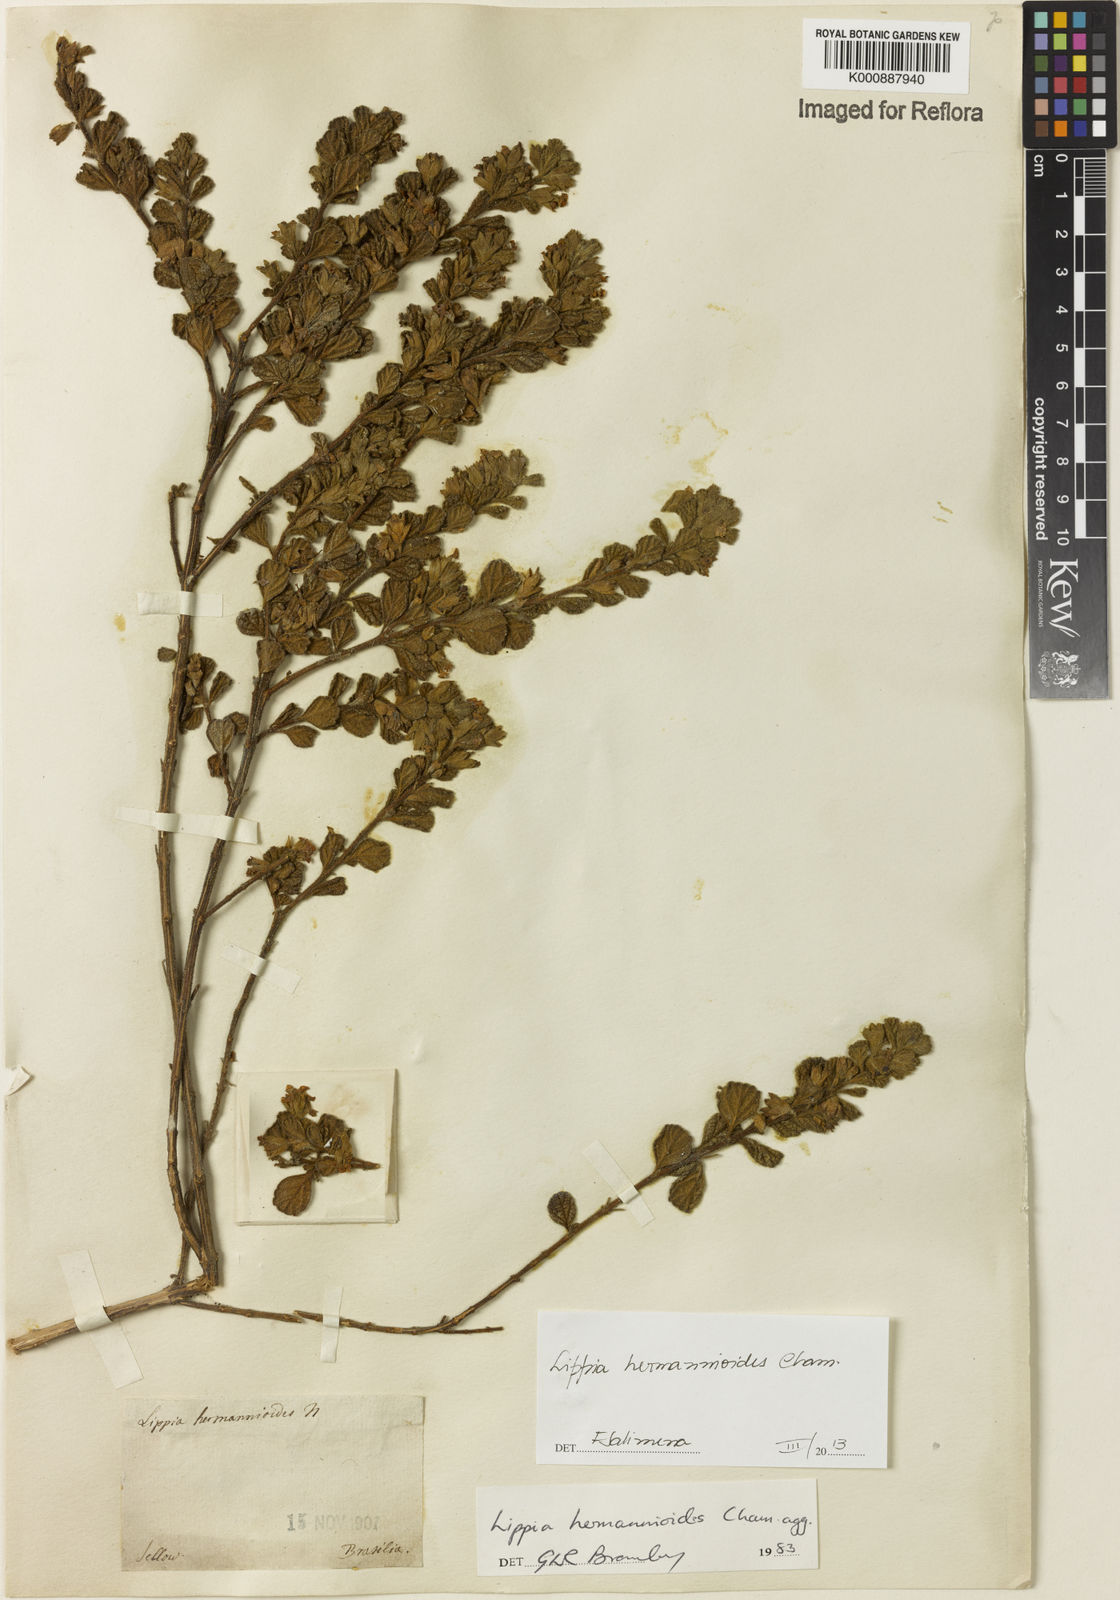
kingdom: Plantae
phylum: Tracheophyta
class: Magnoliopsida
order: Lamiales
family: Verbenaceae
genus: Lippia
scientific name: Lippia hermannioides
